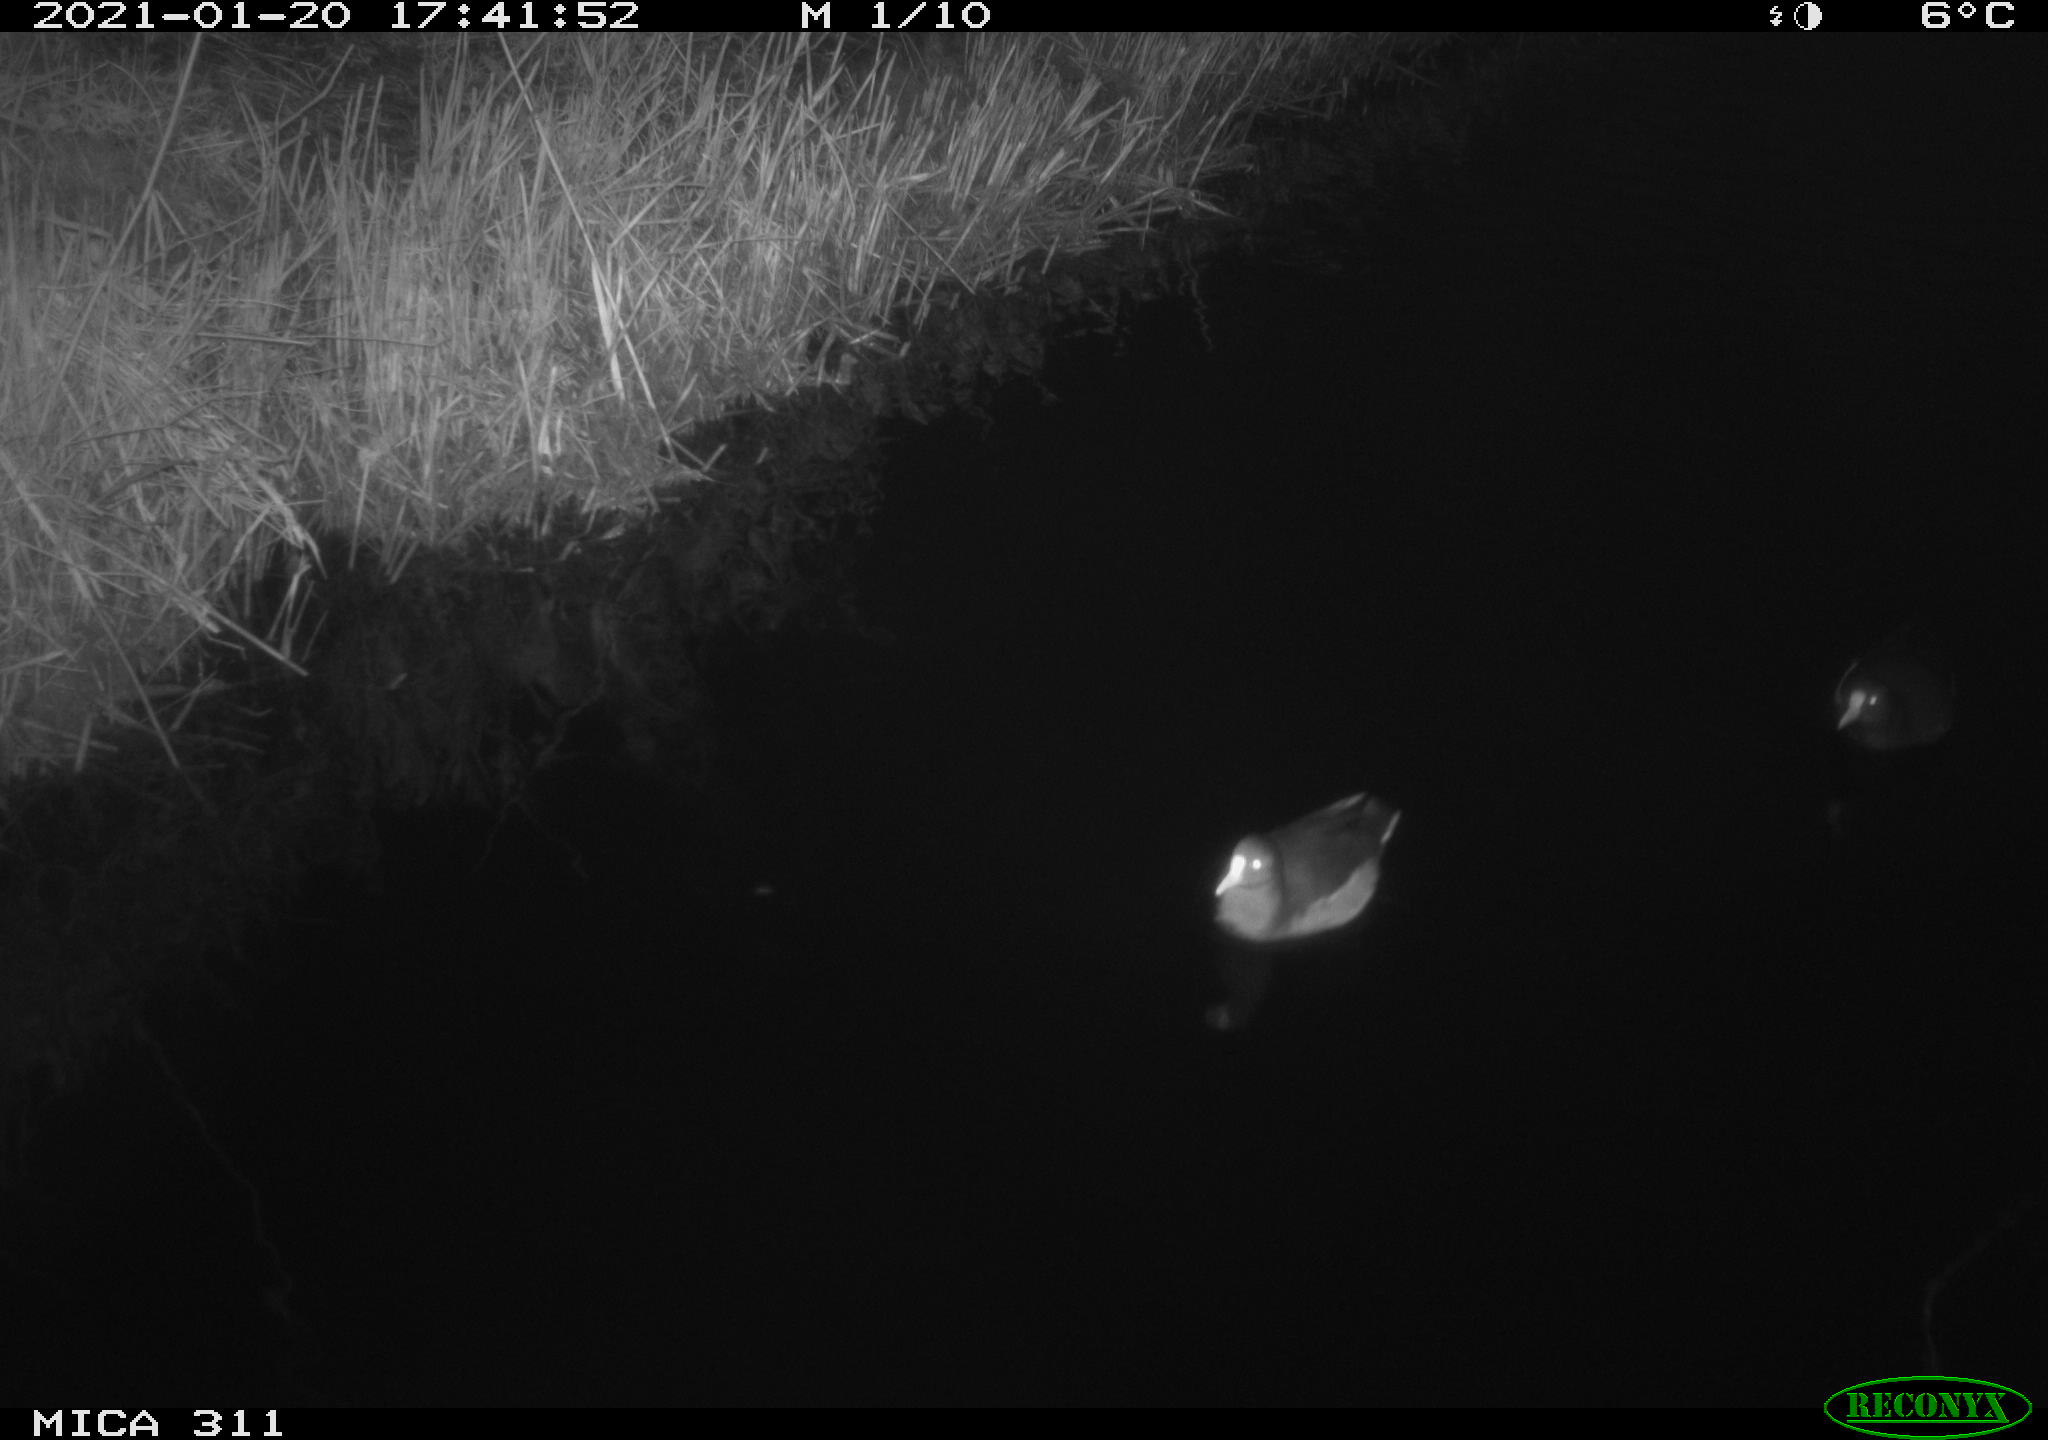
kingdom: Animalia
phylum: Chordata
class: Aves
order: Gruiformes
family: Rallidae
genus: Gallinula
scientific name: Gallinula chloropus
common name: Common moorhen
